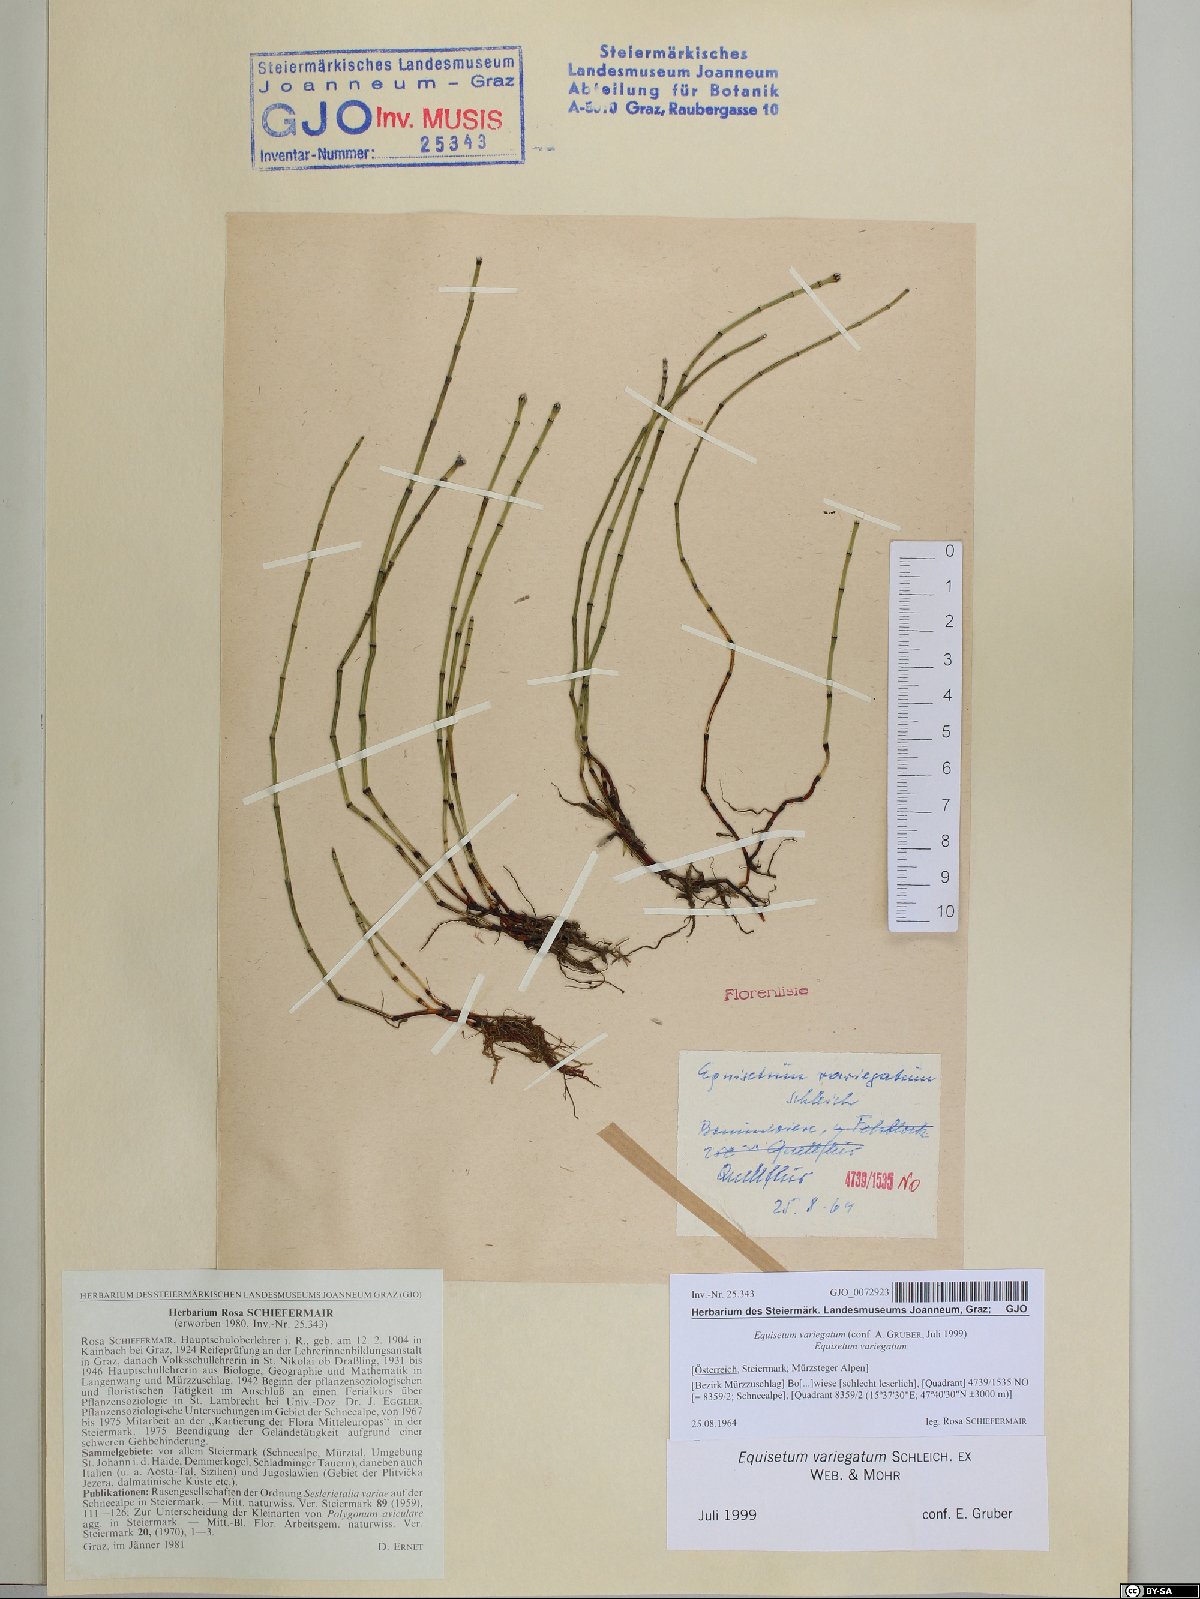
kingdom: Plantae
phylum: Tracheophyta
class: Polypodiopsida
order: Equisetales
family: Equisetaceae
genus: Equisetum
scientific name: Equisetum variegatum
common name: Variegated horsetail
